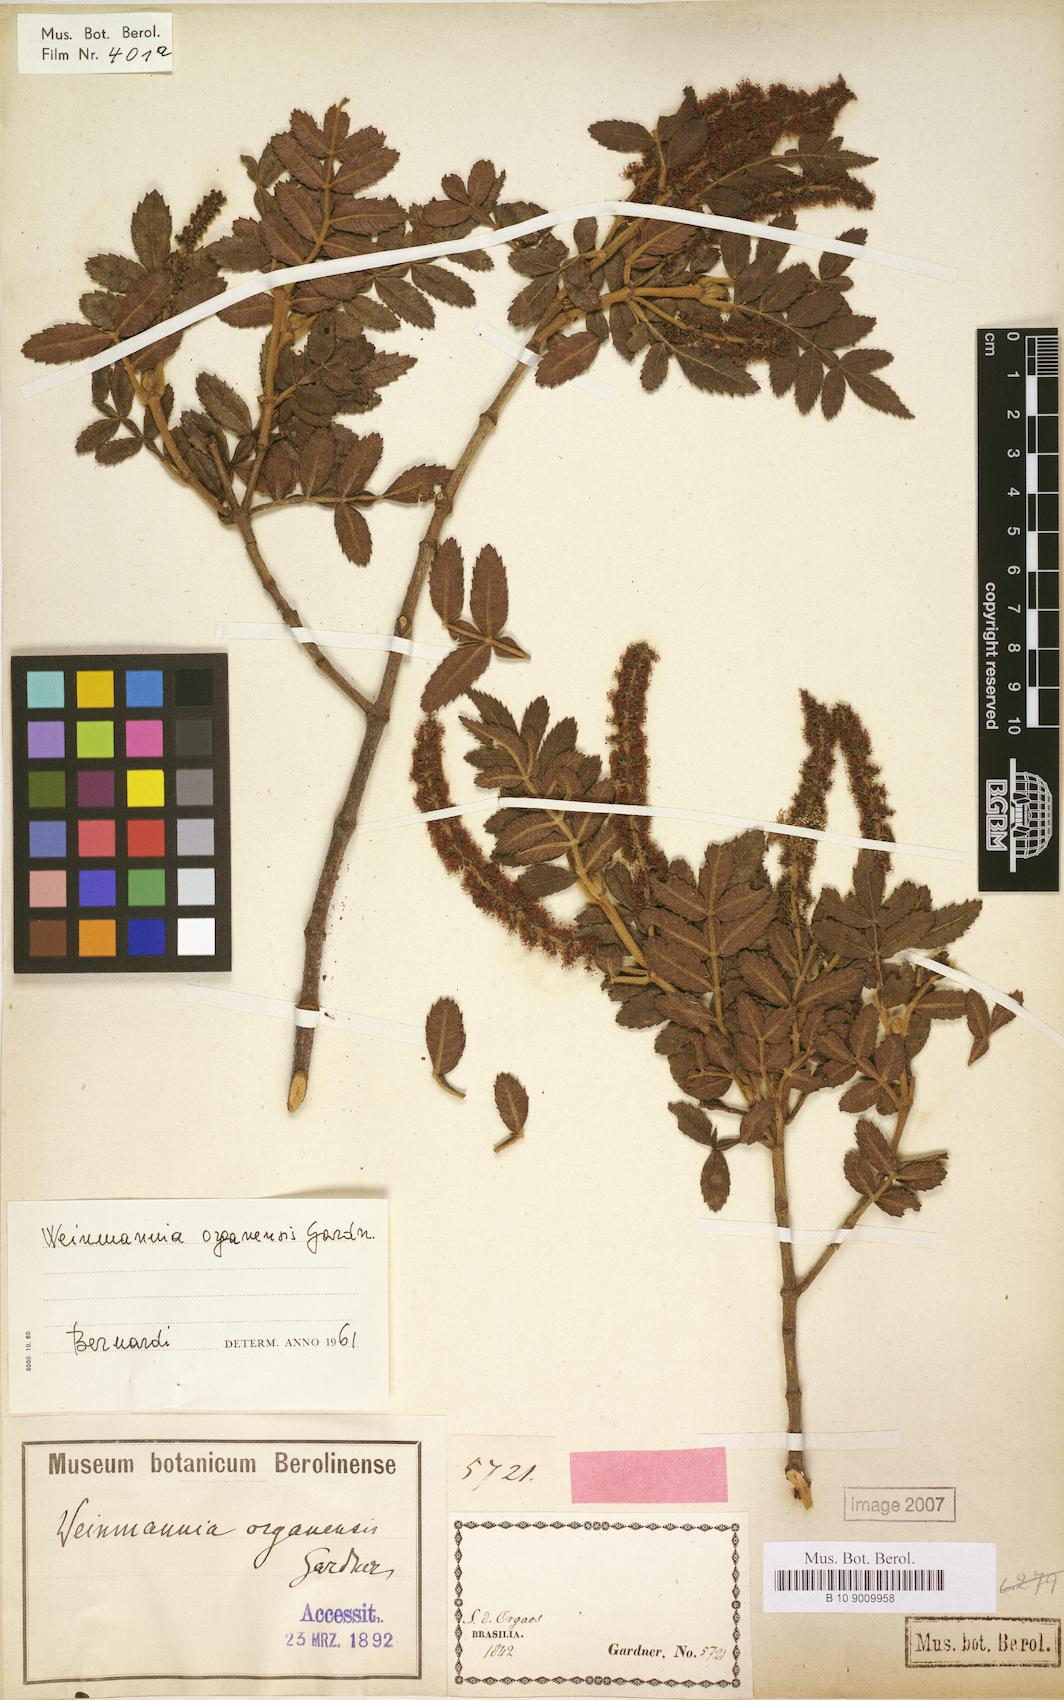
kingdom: Plantae
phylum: Tracheophyta
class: Magnoliopsida
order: Oxalidales
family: Cunoniaceae
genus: Weinmannia
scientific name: Weinmannia organensis
